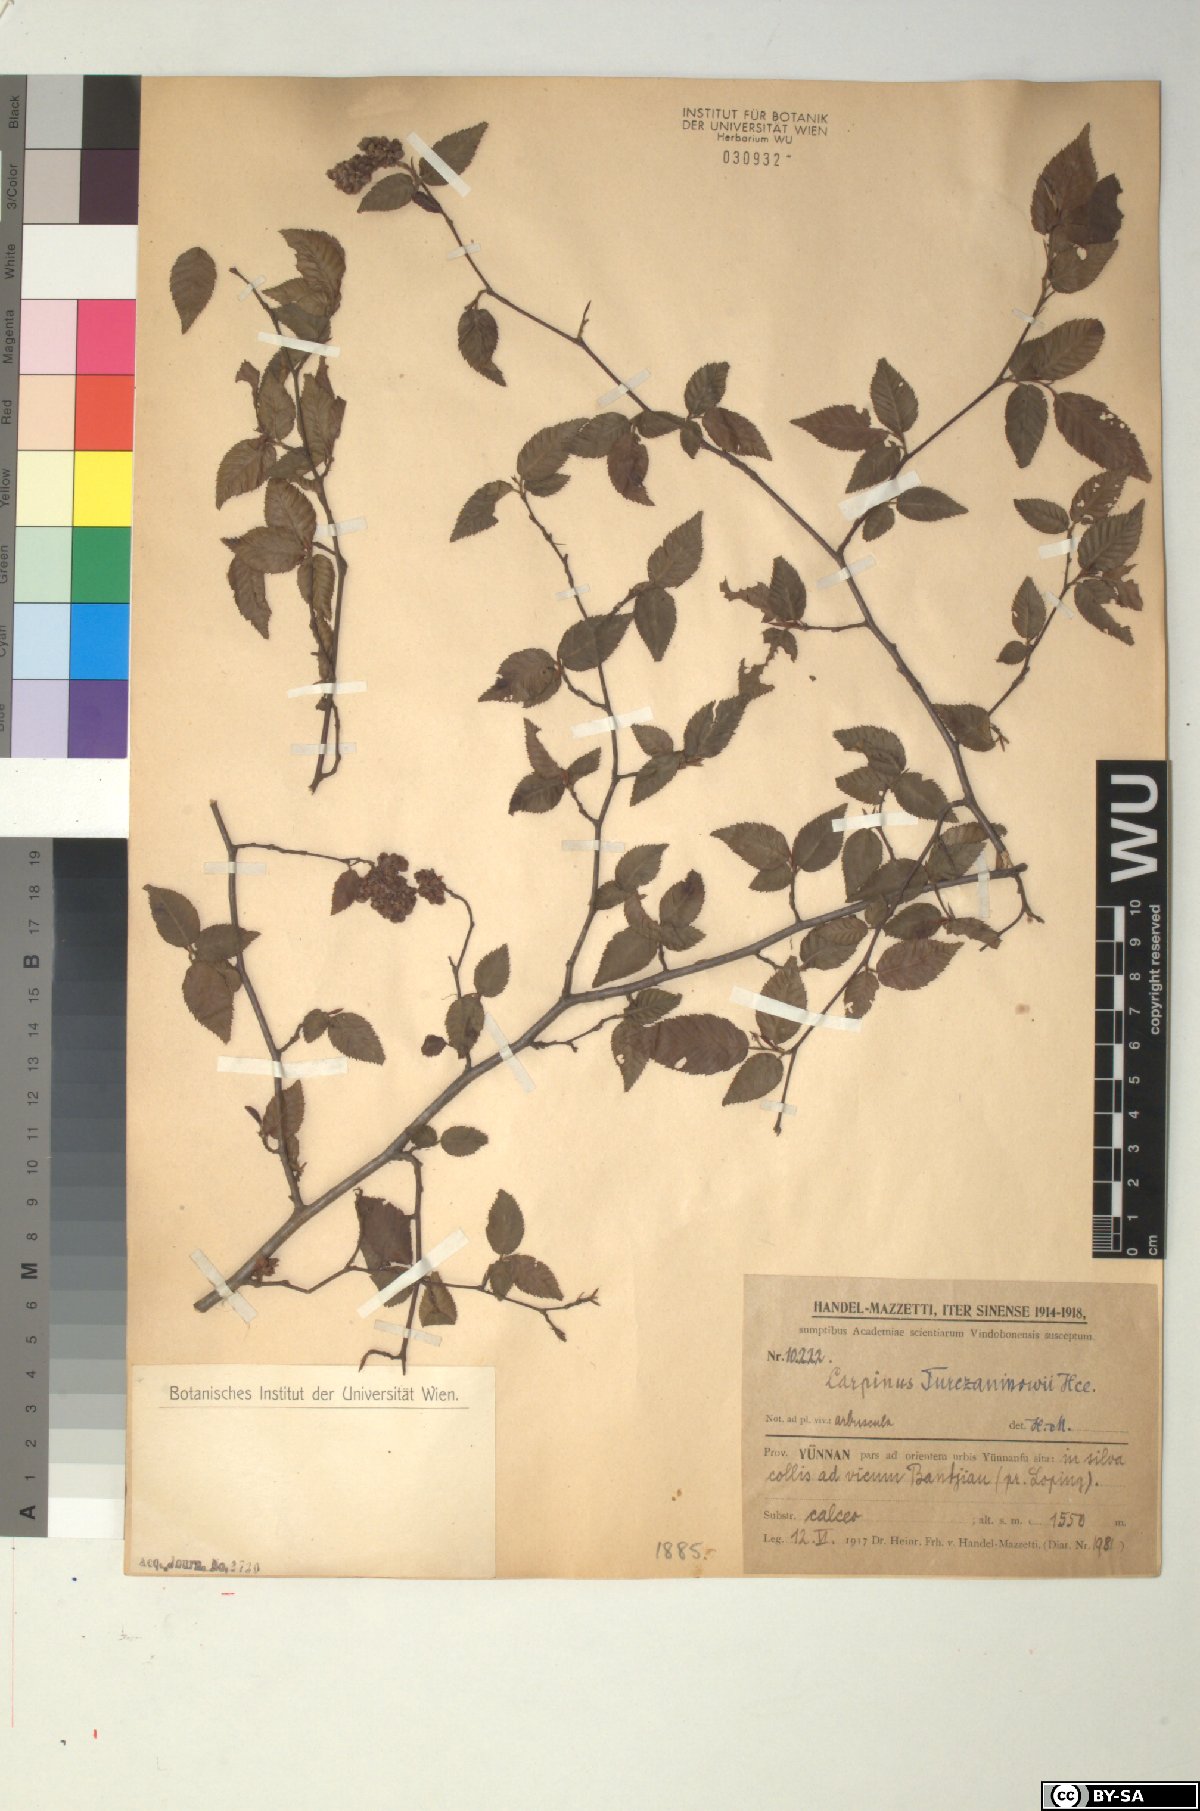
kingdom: Plantae
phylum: Tracheophyta
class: Magnoliopsida
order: Fagales
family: Betulaceae
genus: Carpinus
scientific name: Carpinus turczaninovii
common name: Korean hornbeam
